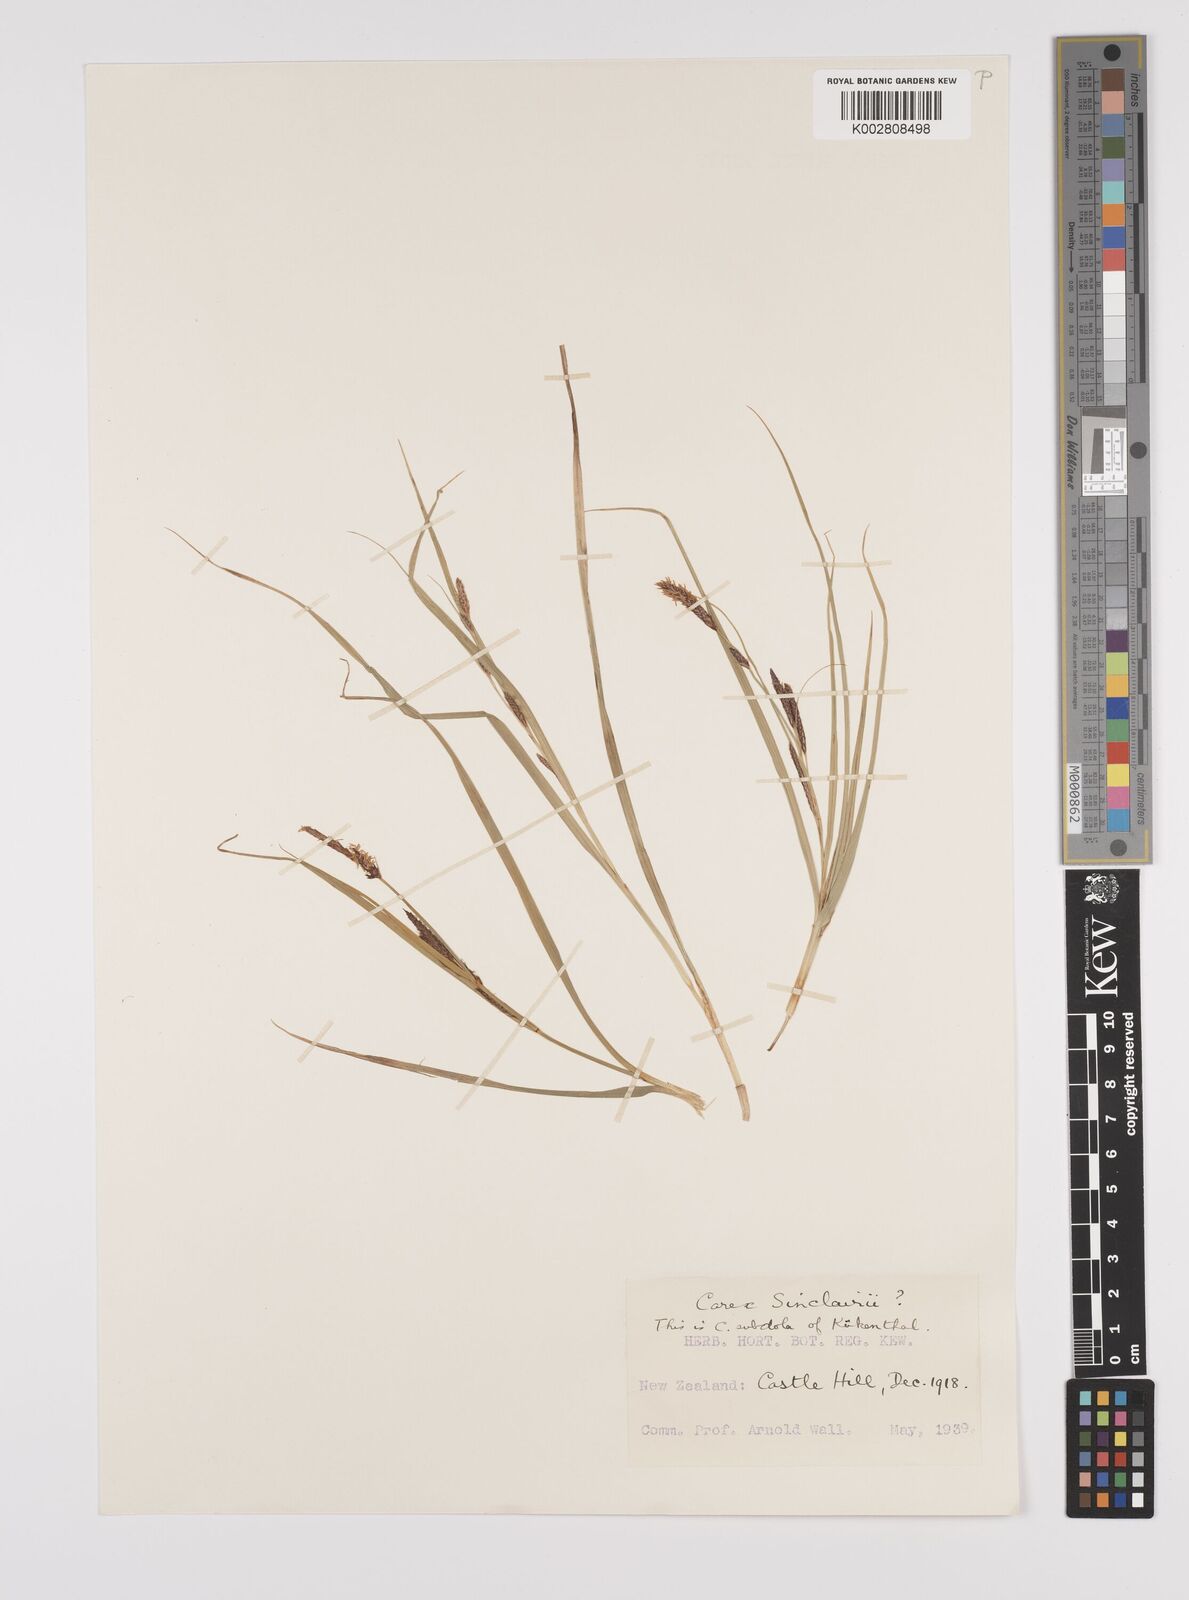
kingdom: Plantae
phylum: Tracheophyta
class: Liliopsida
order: Poales
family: Cyperaceae
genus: Carex
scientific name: Carex sinclairii
